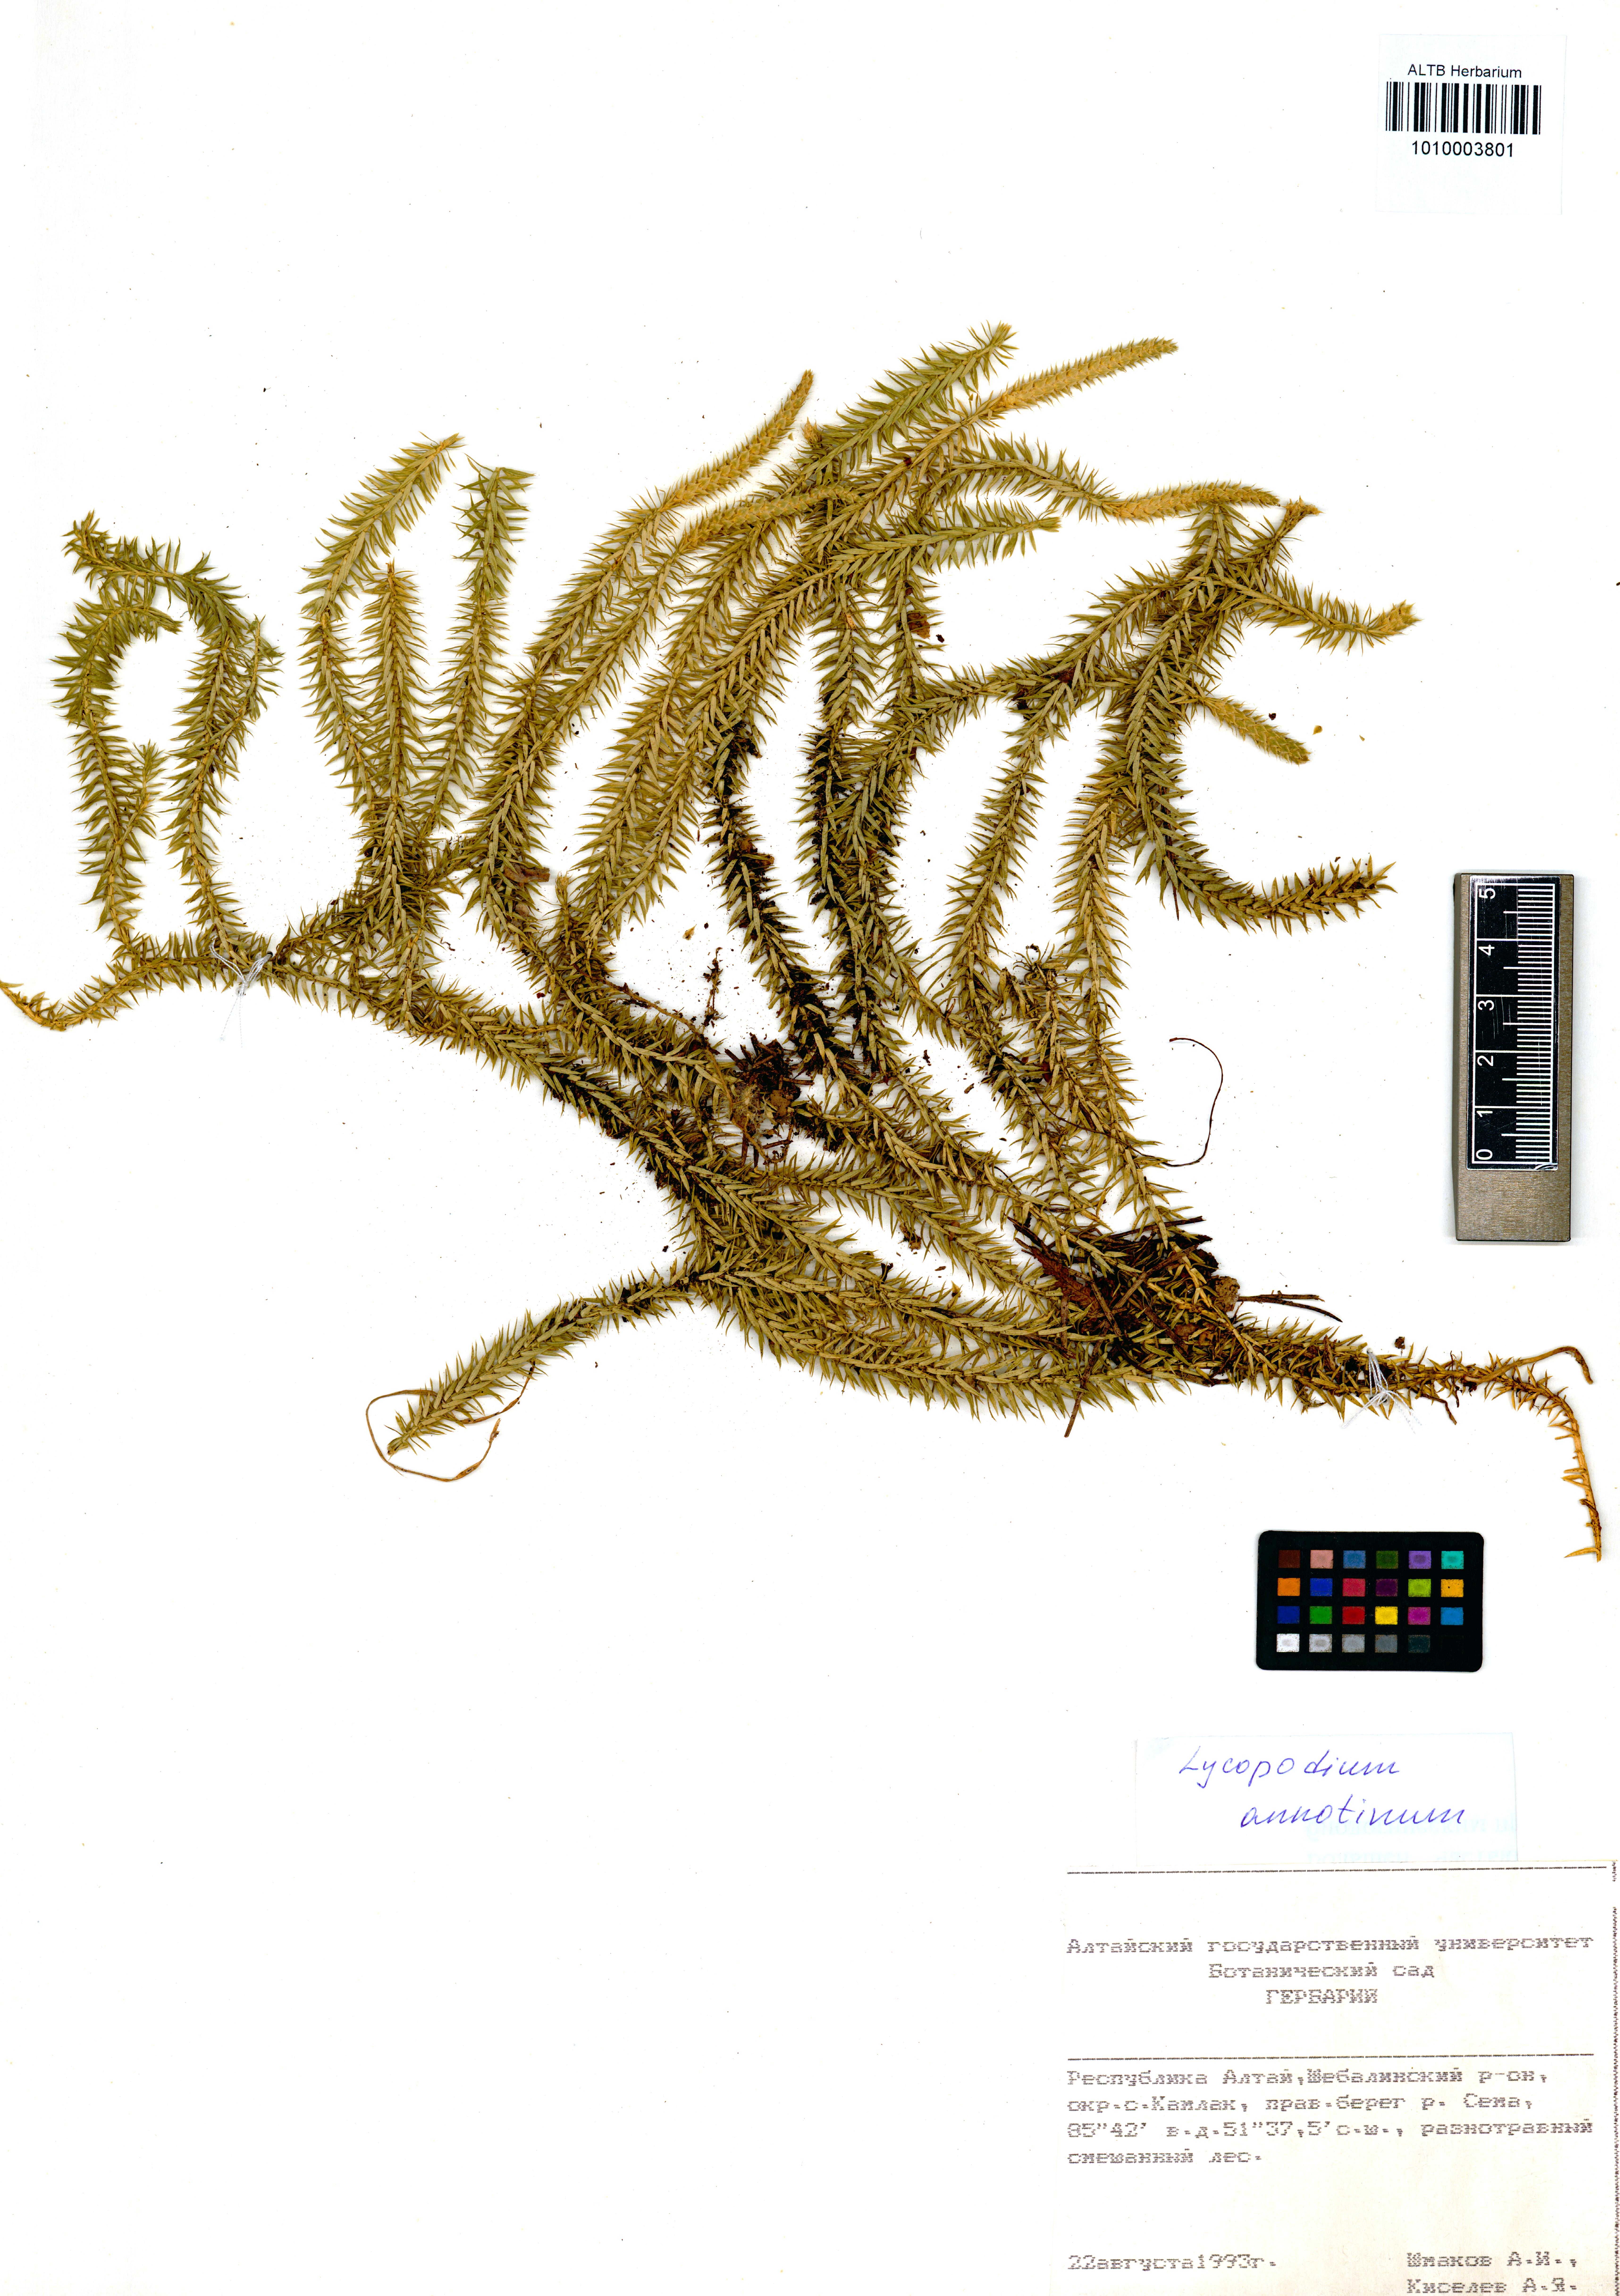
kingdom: Plantae
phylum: Tracheophyta
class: Lycopodiopsida
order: Lycopodiales
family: Lycopodiaceae
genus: Spinulum
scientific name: Spinulum annotinum
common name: Interrupted club-moss
